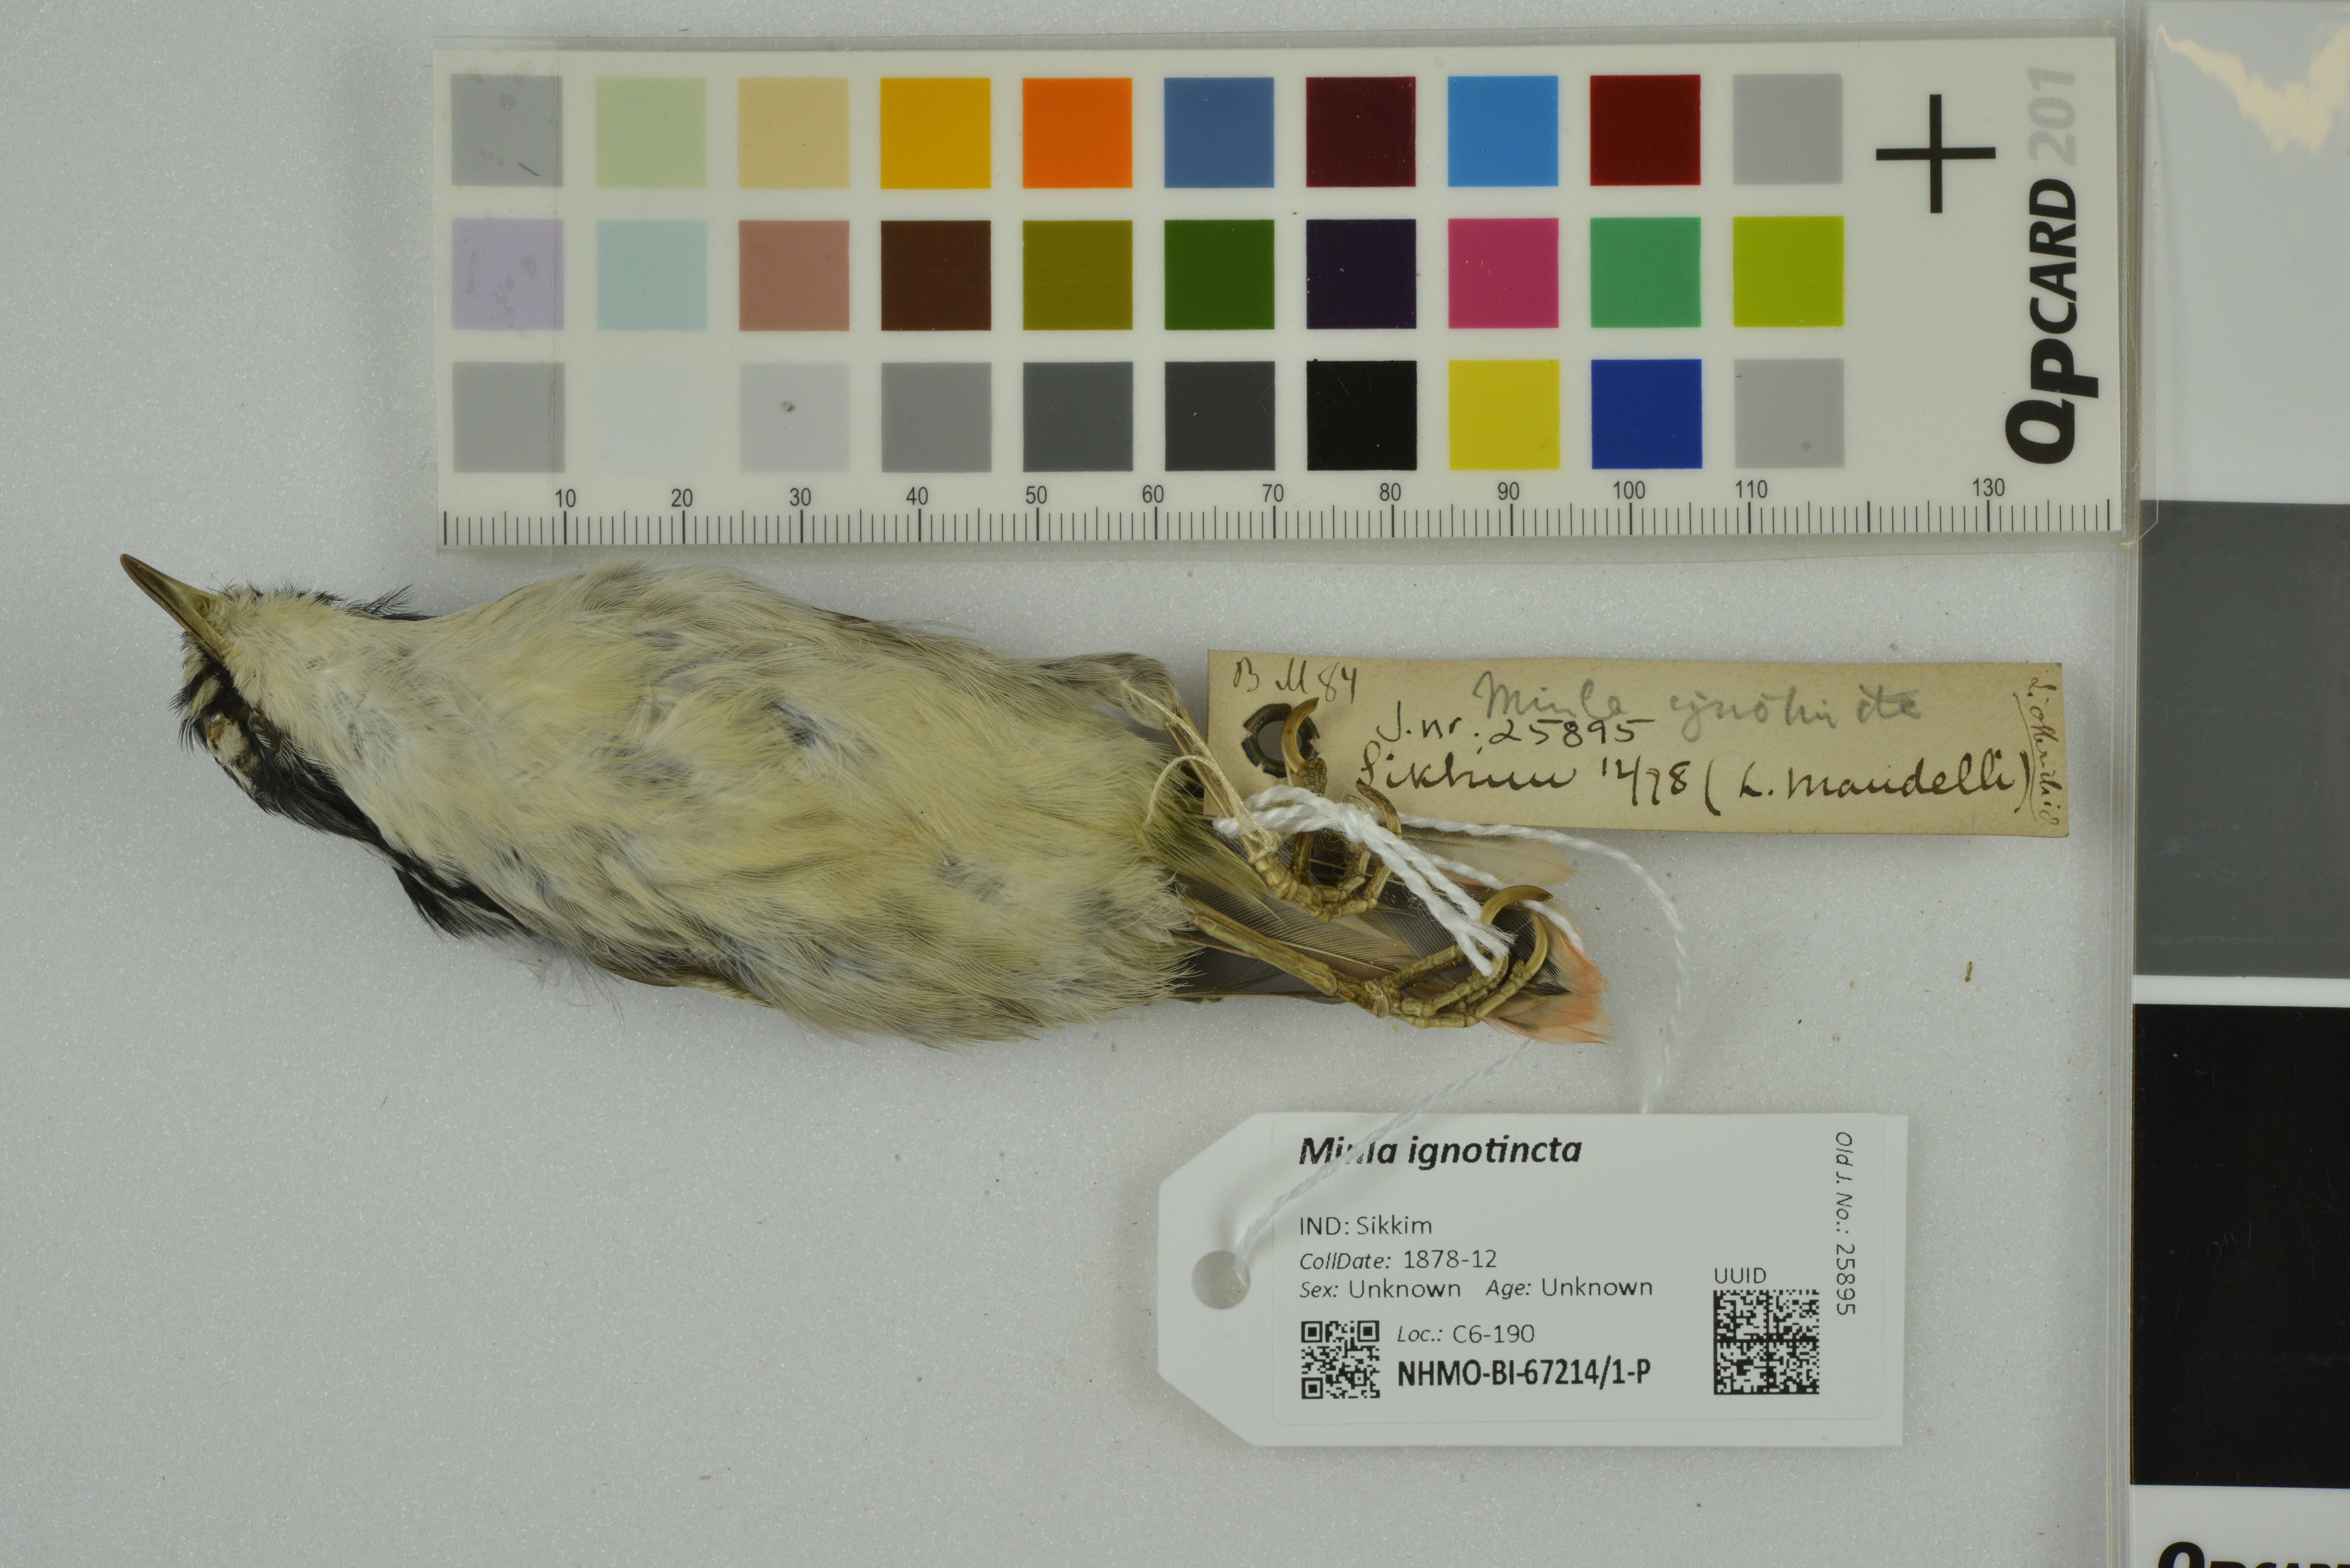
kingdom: Animalia
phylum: Chordata
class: Aves
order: Passeriformes
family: Leiothrichidae
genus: Minla
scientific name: Minla ignotincta
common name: Red-tailed minla
